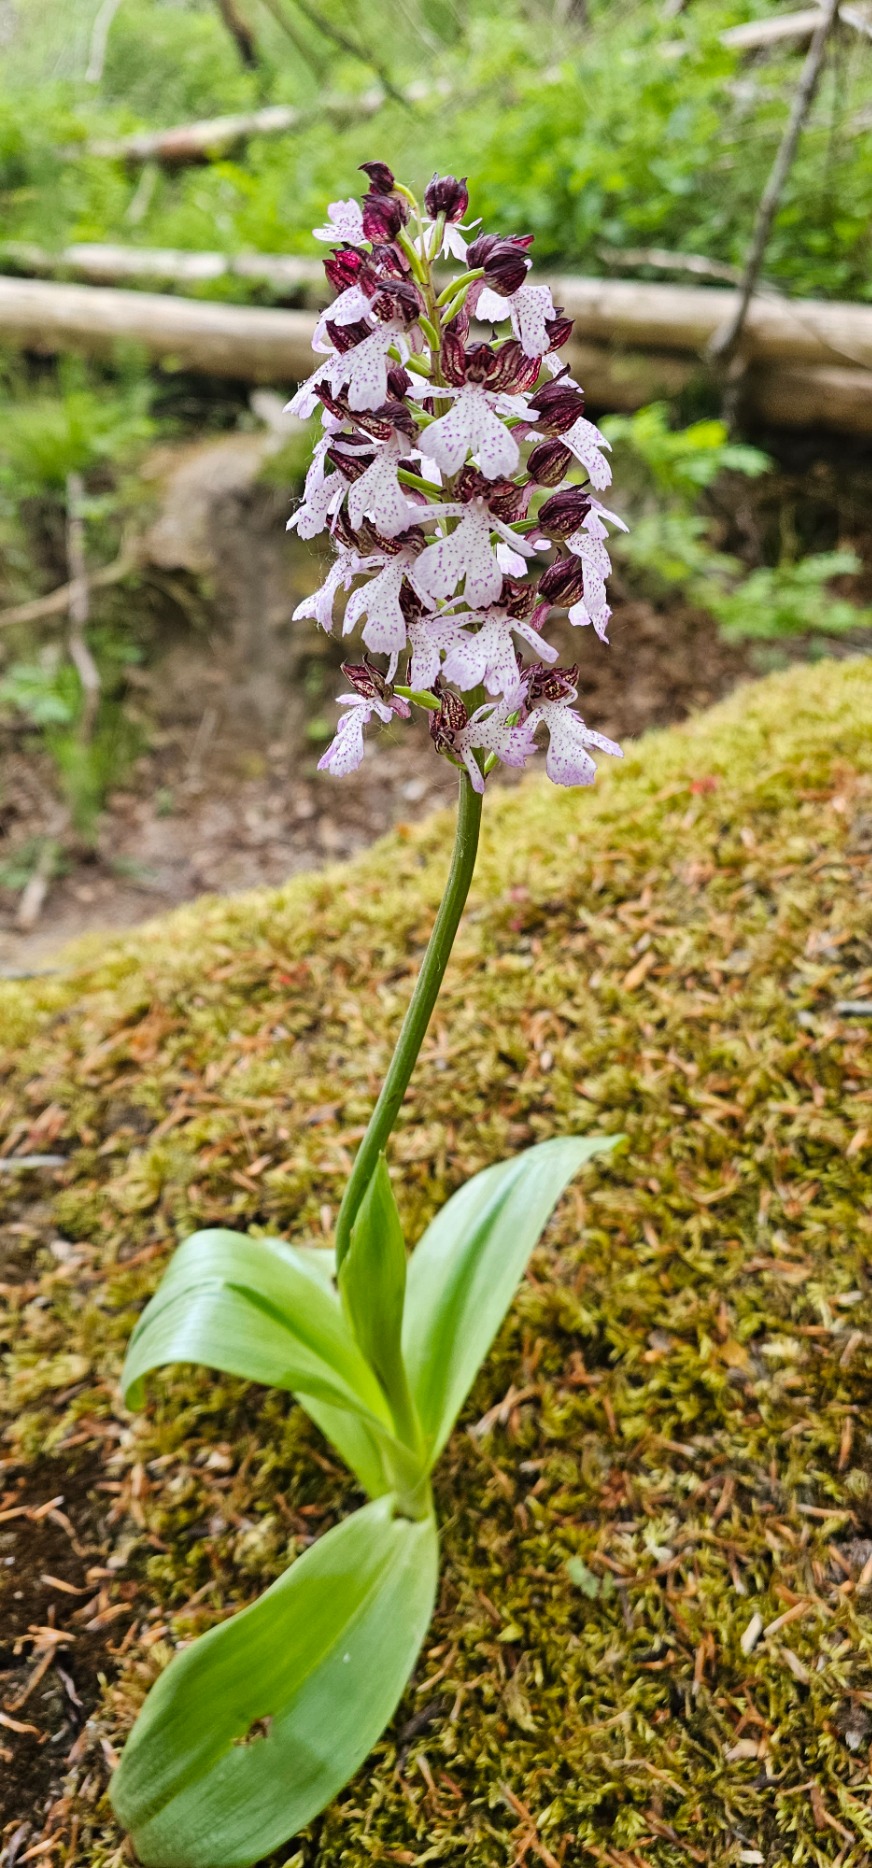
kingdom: Plantae
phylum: Tracheophyta
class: Liliopsida
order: Asparagales
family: Orchidaceae
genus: Orchis
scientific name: Orchis purpurea
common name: Stor gøgeurt
